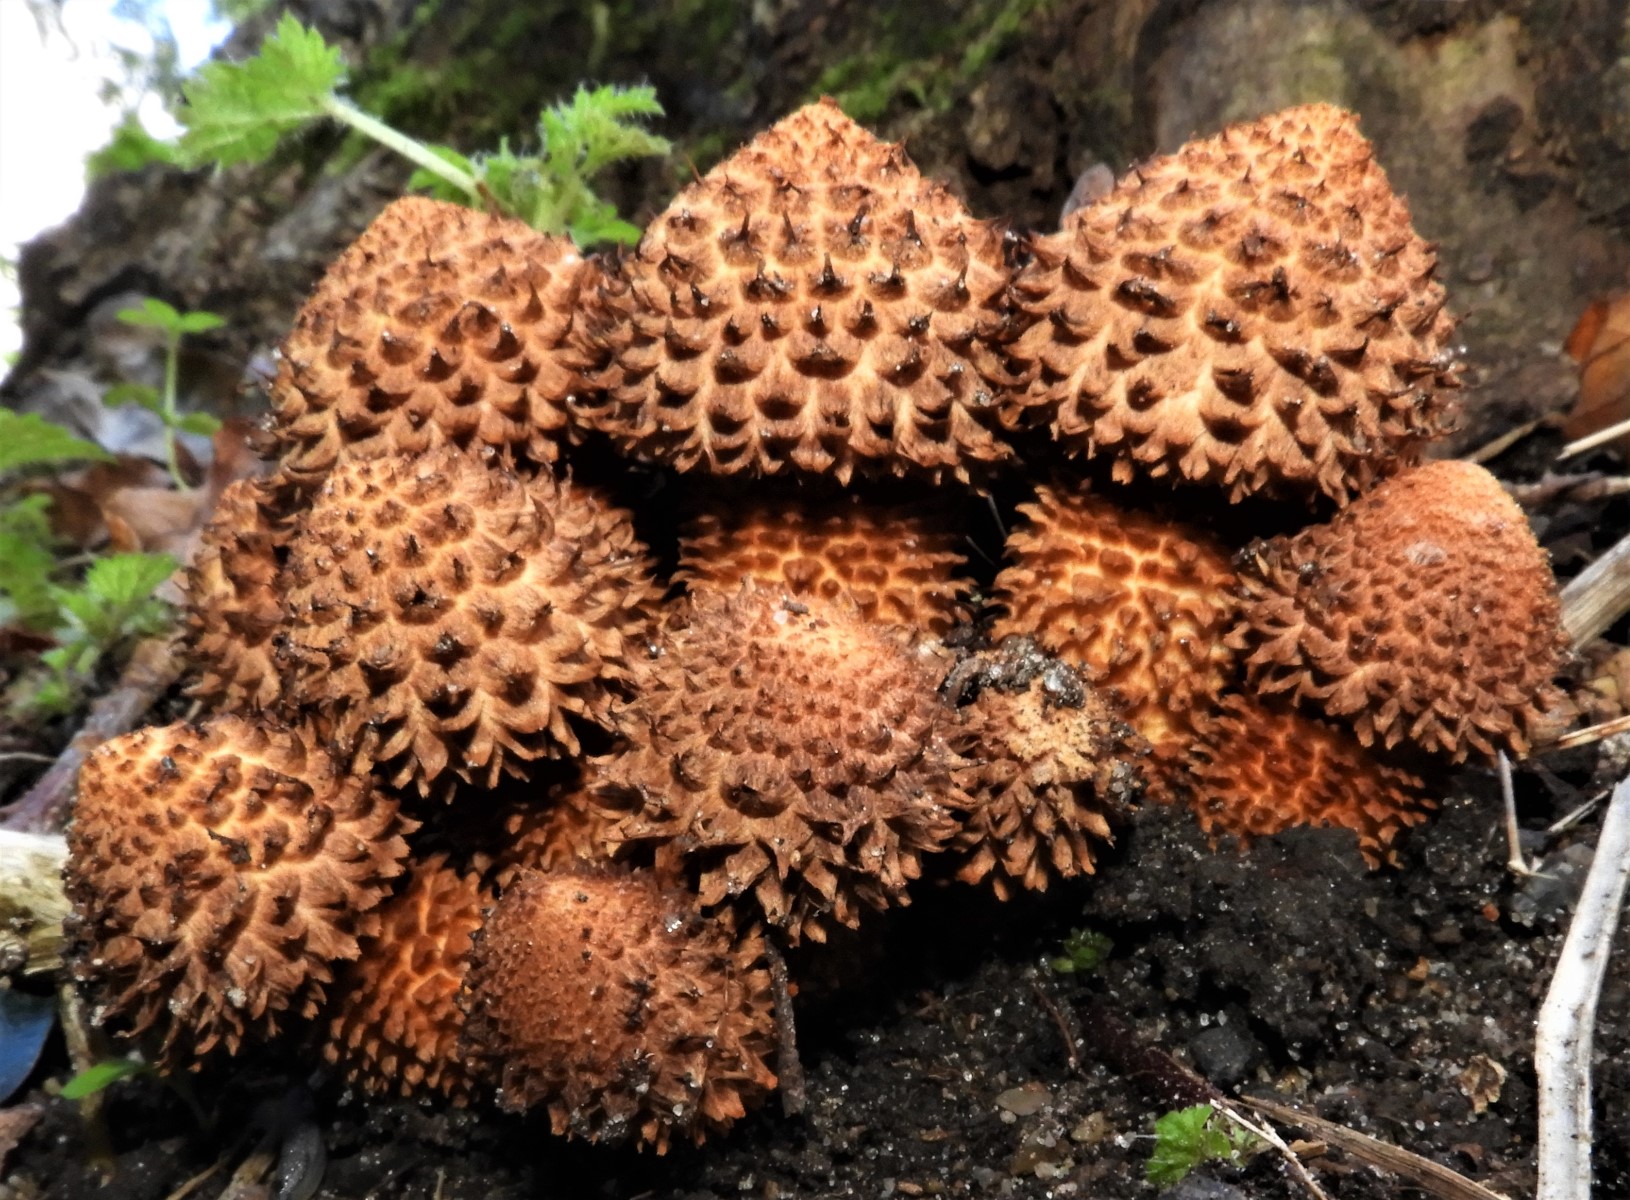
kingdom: Fungi
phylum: Basidiomycota
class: Agaricomycetes
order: Agaricales
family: Strophariaceae
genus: Pholiota
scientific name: Pholiota squarrosa
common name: krumskællet skælhat
